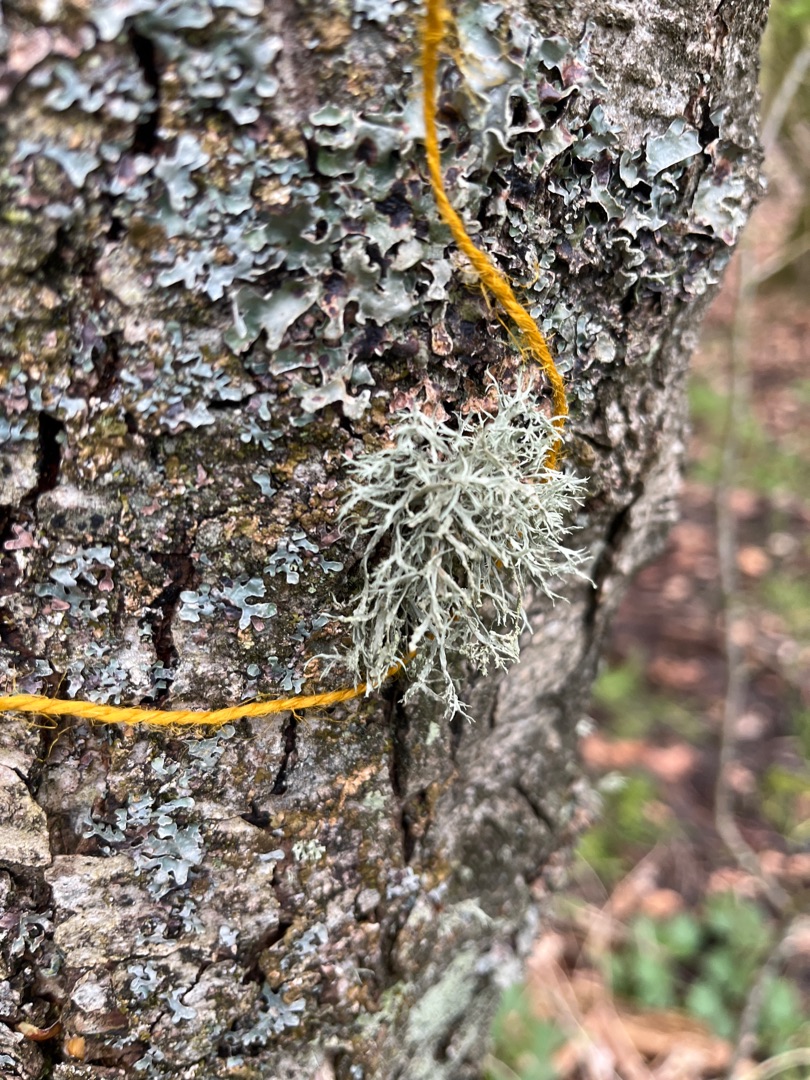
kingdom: Fungi
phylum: Ascomycota
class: Lecanoromycetes
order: Lecanorales
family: Ramalinaceae
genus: Ramalina
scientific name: Ramalina farinacea
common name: Melet grenlav
